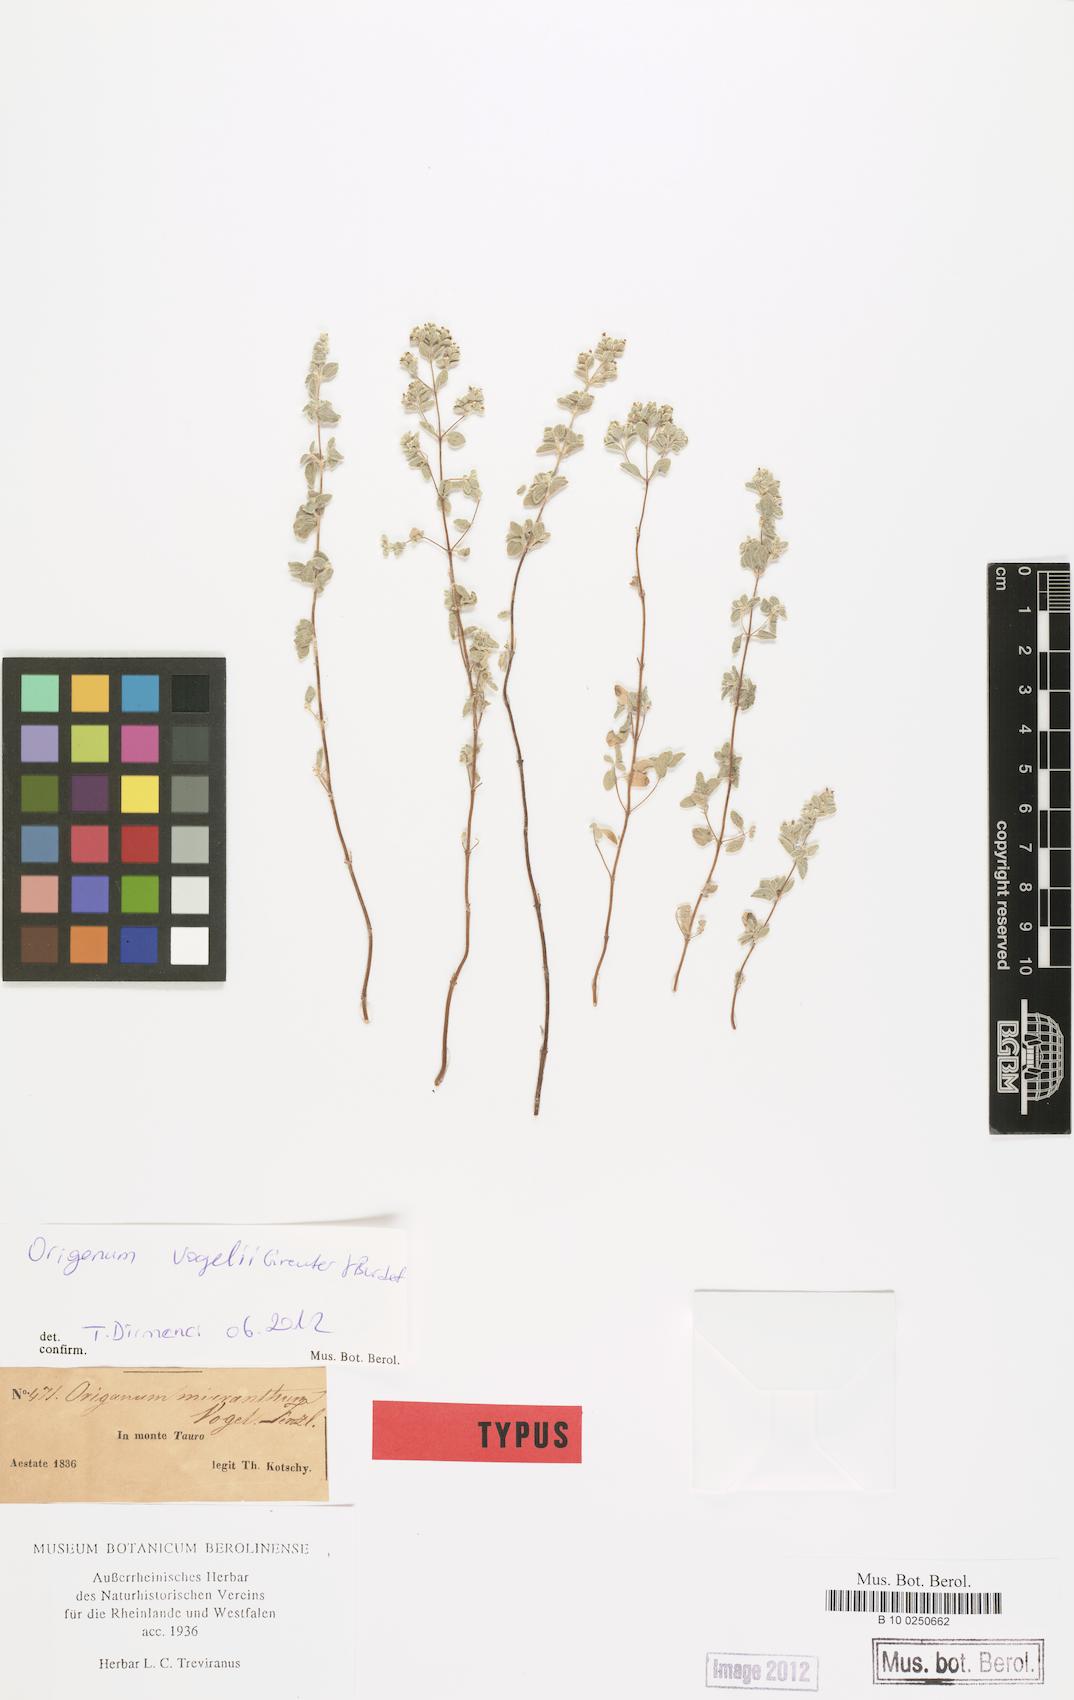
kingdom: Plantae
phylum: Tracheophyta
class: Magnoliopsida
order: Lamiales
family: Lamiaceae
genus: Origanum
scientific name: Origanum vogelii
